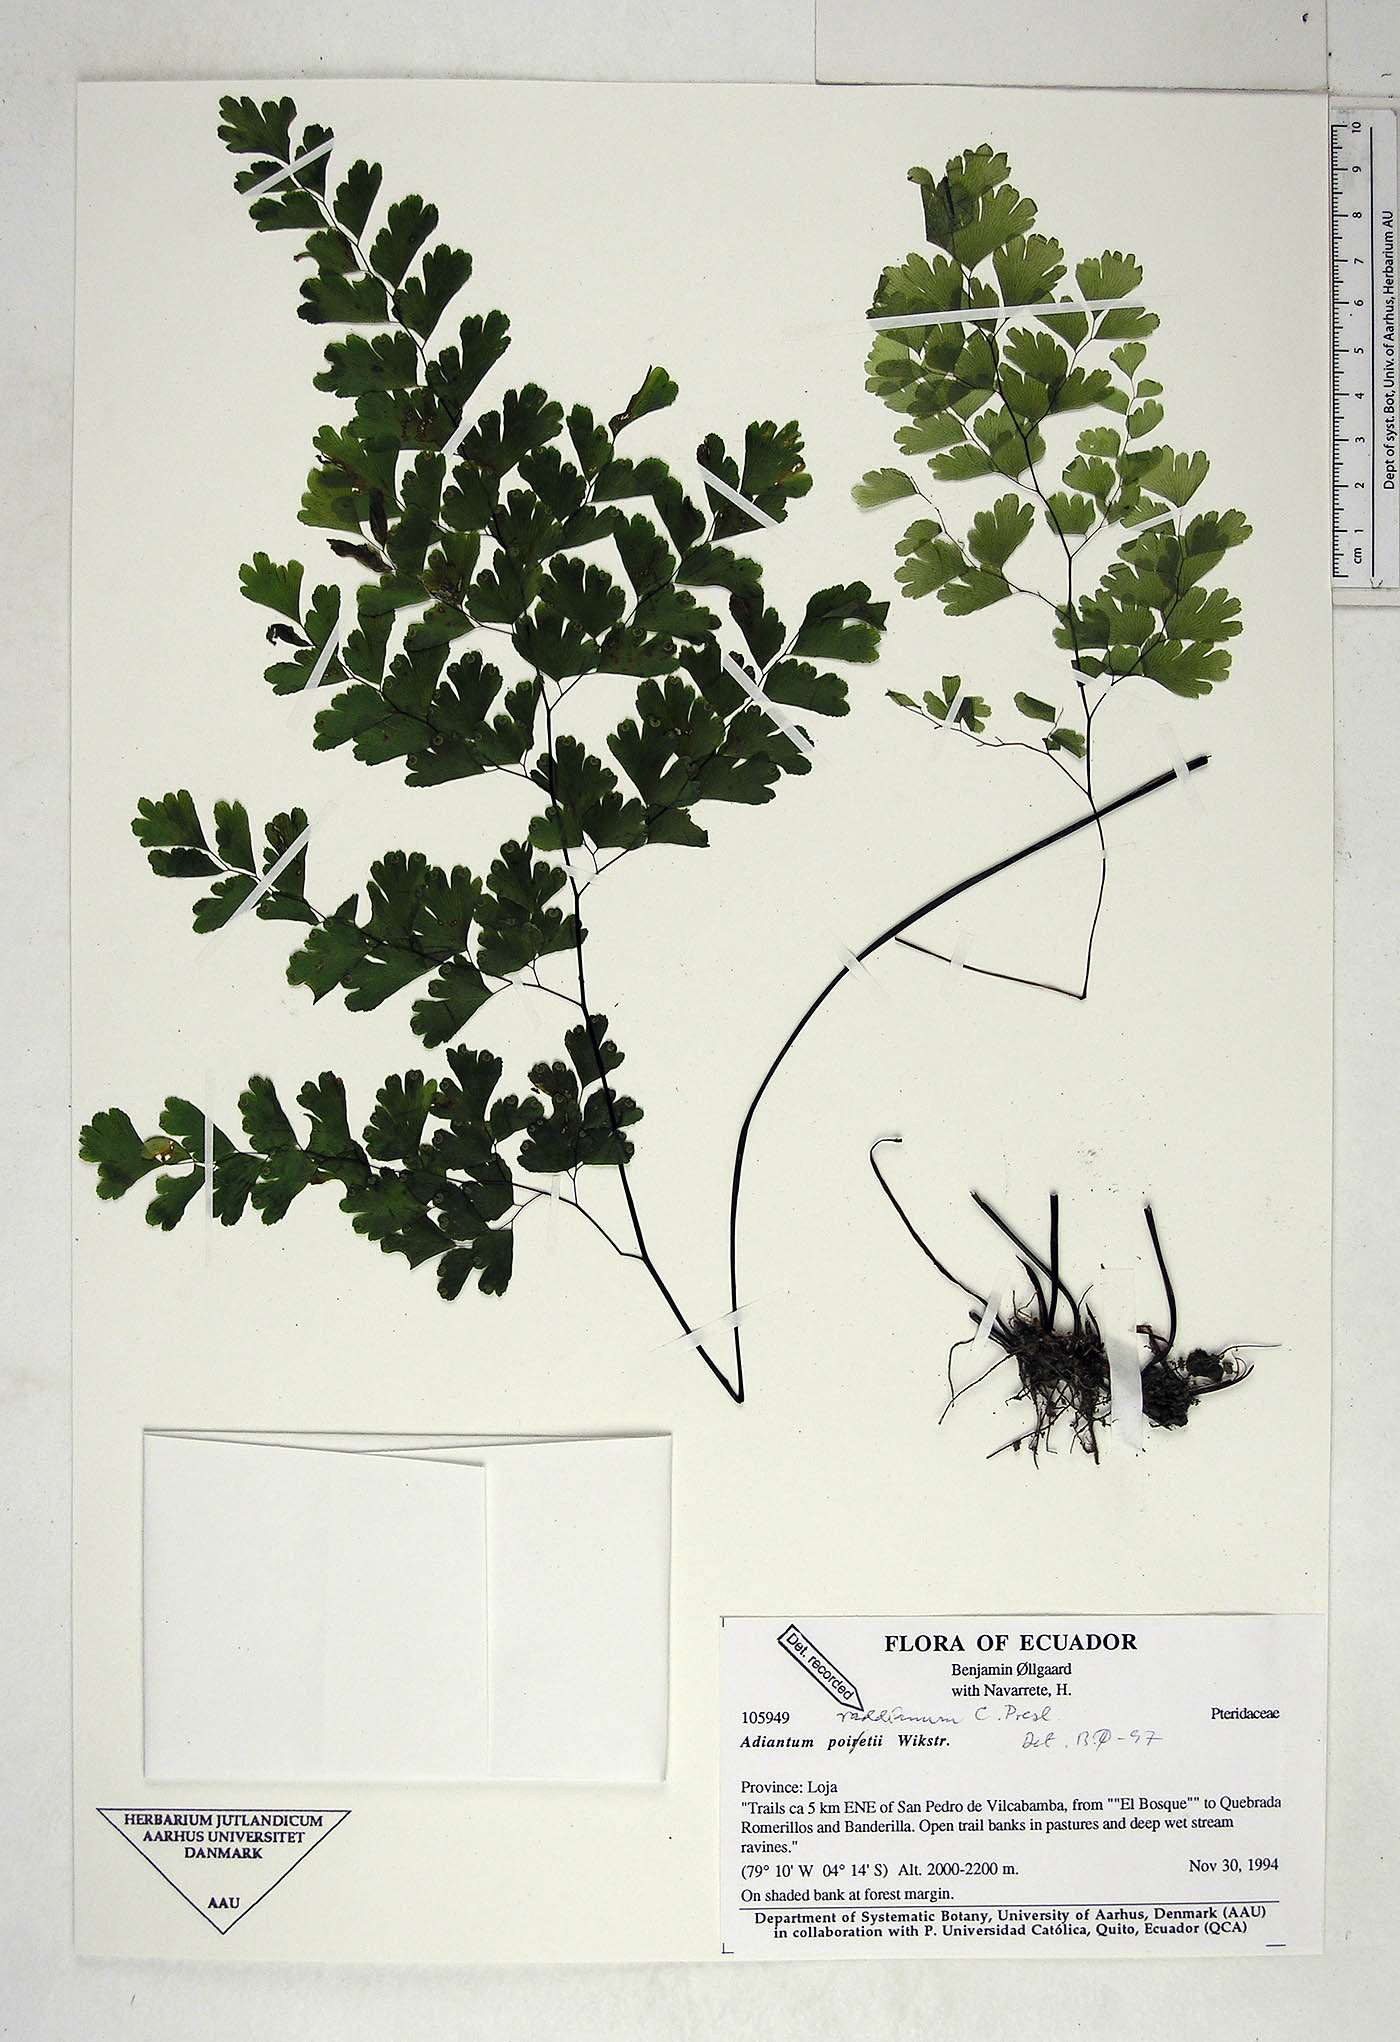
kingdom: Plantae
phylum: Tracheophyta
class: Polypodiopsida
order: Polypodiales
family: Pteridaceae
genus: Adiantum
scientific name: Adiantum raddianum
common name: Delta maidenhair fern
